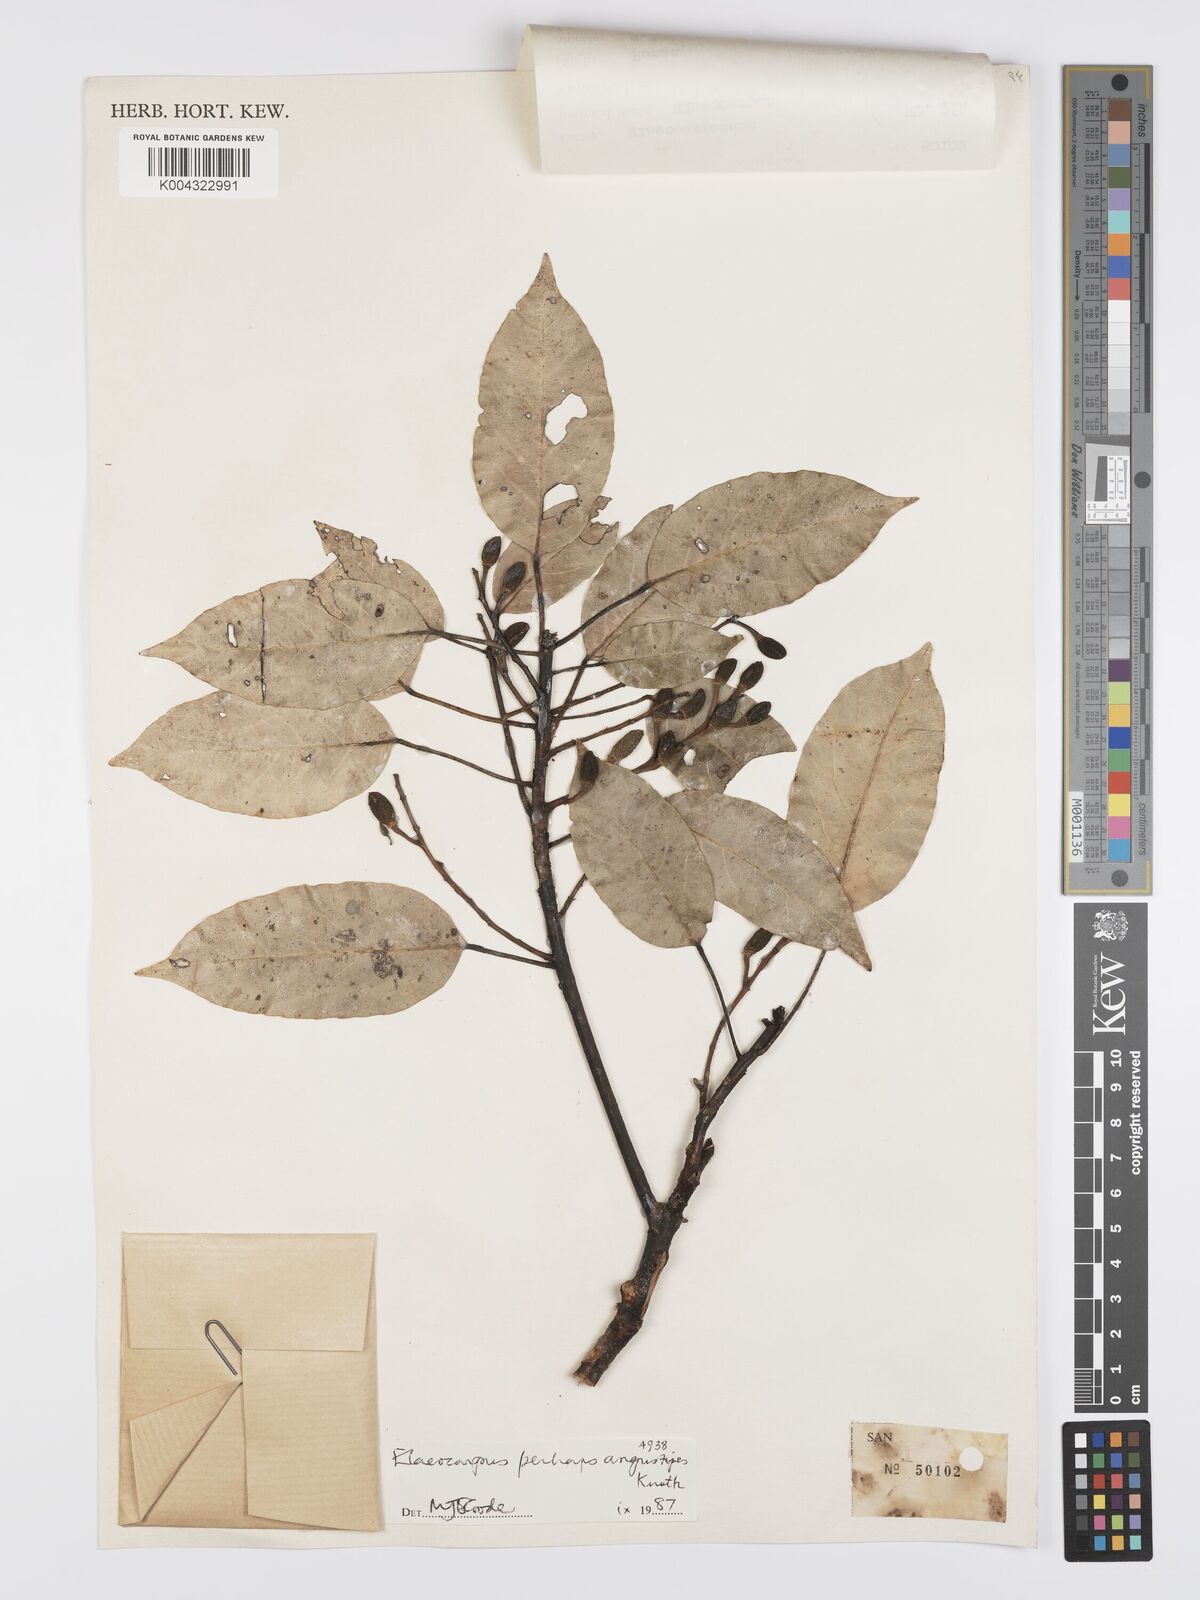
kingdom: Plantae
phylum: Tracheophyta
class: Magnoliopsida
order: Oxalidales
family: Elaeocarpaceae
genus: Elaeocarpus
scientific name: Elaeocarpus angustipes
